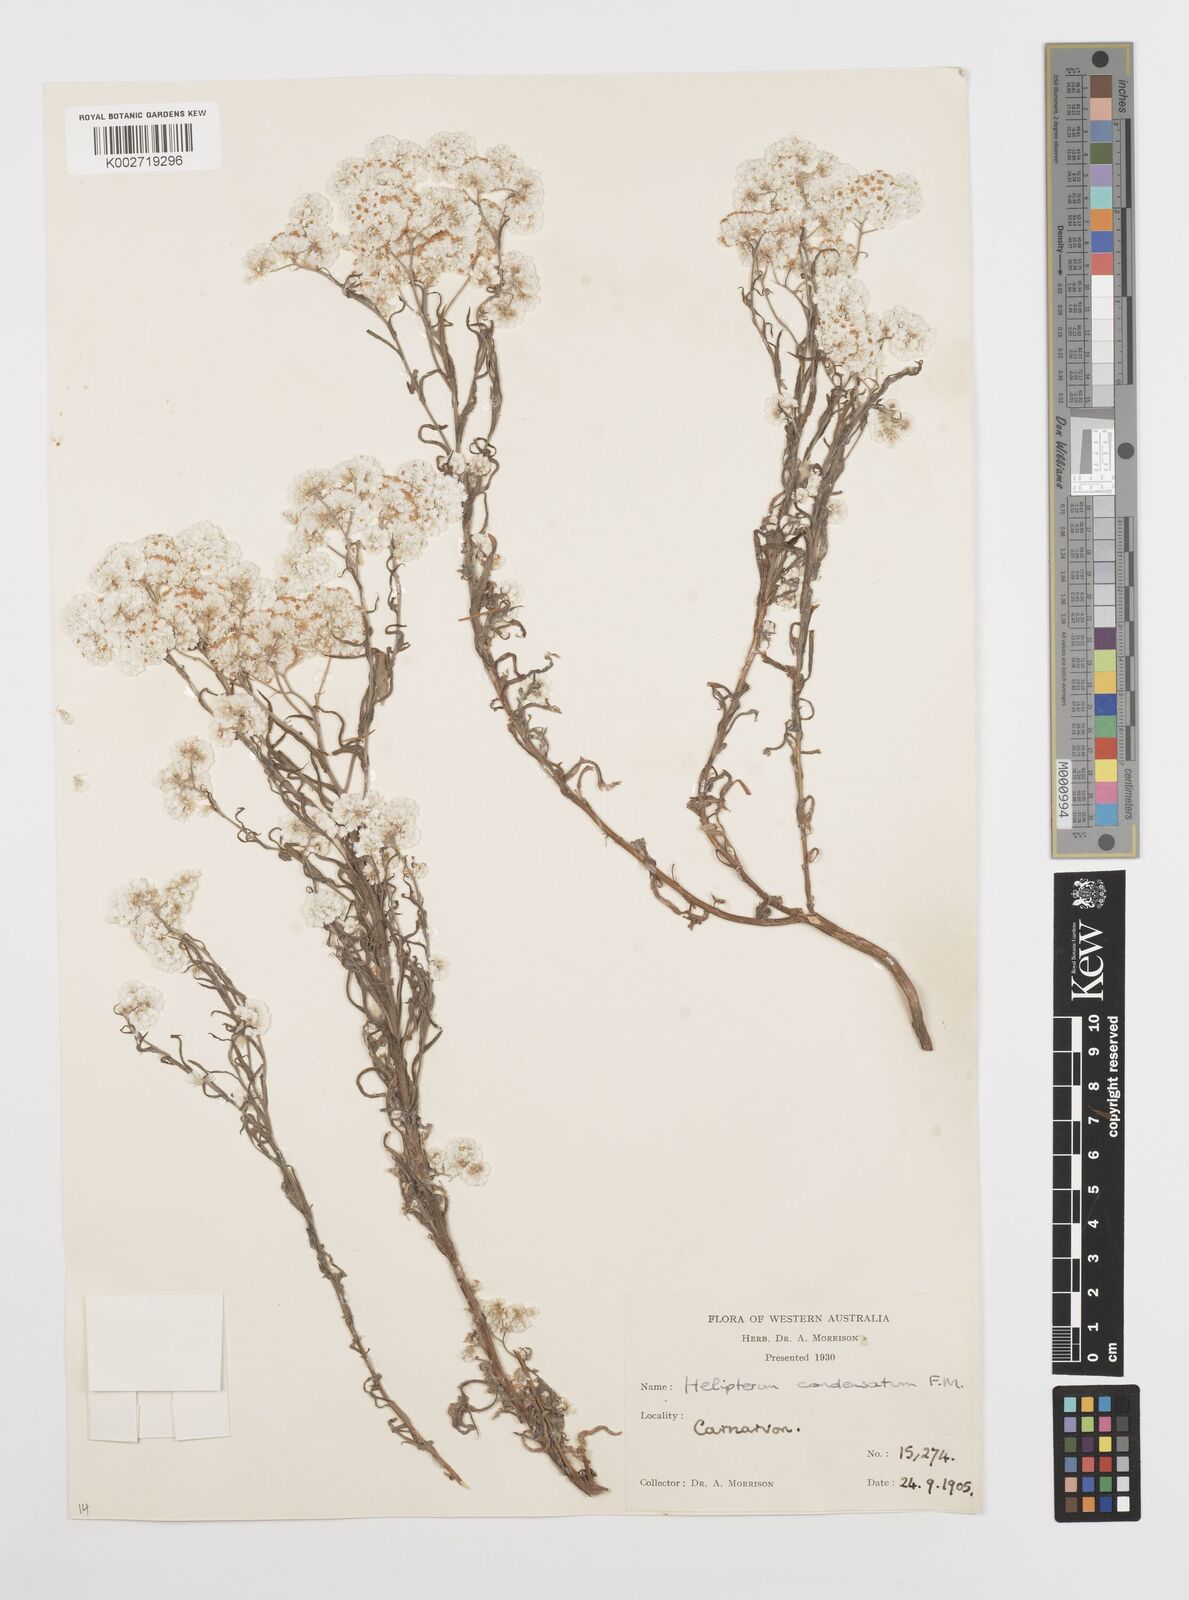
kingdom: Plantae
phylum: Tracheophyta
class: Magnoliopsida
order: Asterales
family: Asteraceae
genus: Rhodanthe
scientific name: Rhodanthe condensata
